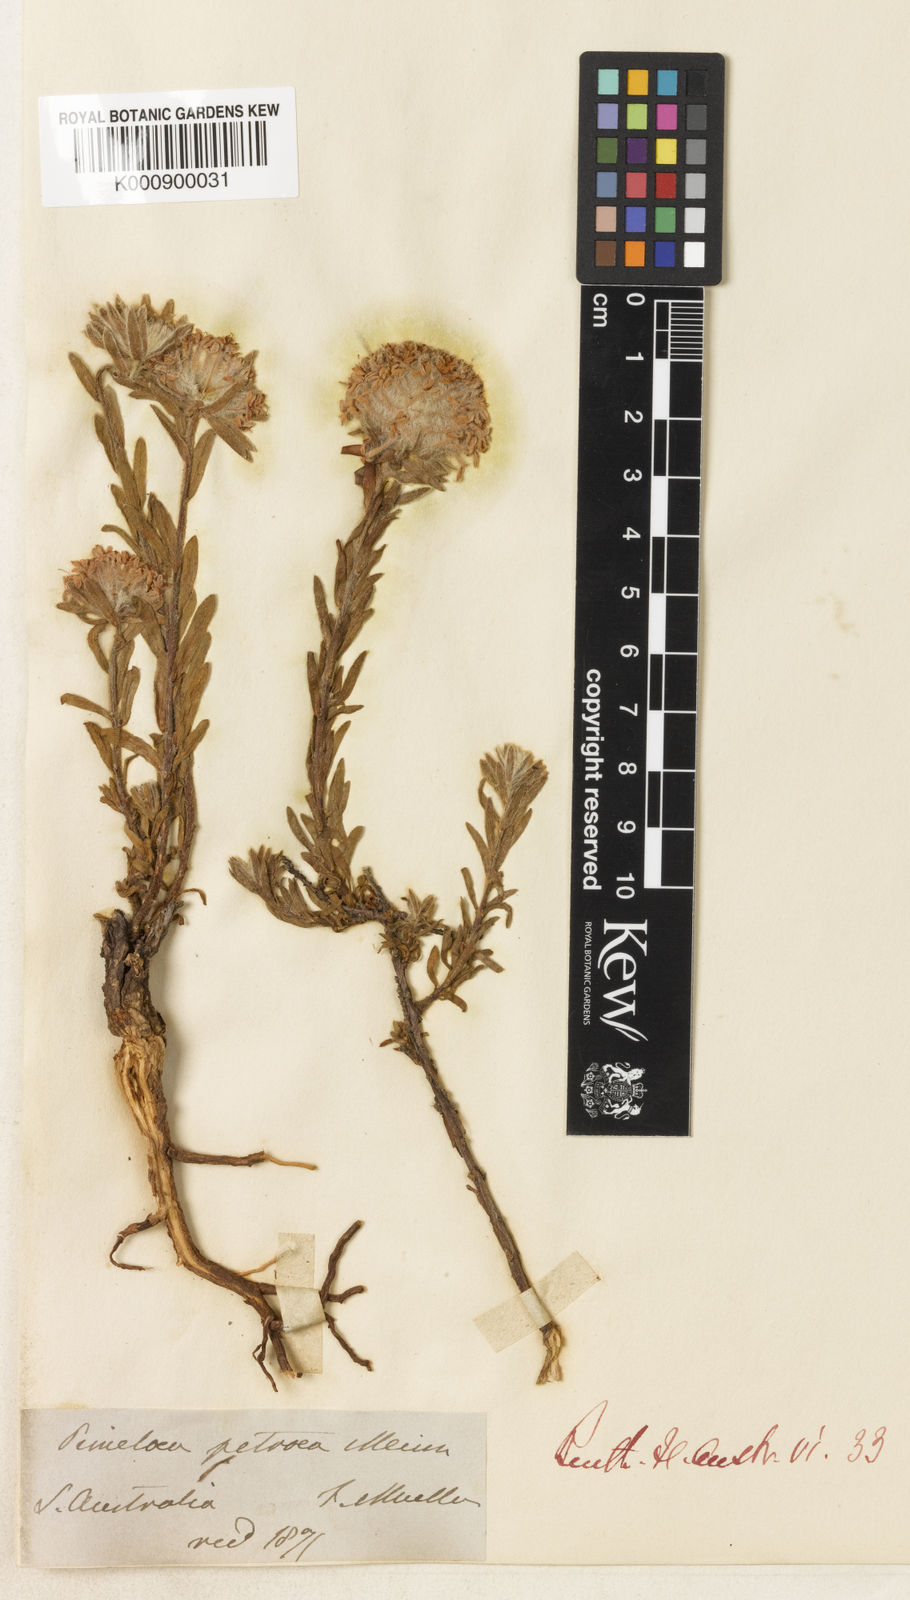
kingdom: Plantae
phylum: Tracheophyta
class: Magnoliopsida
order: Malvales
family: Thymelaeaceae
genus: Pimelea
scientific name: Pimelea imbricata
